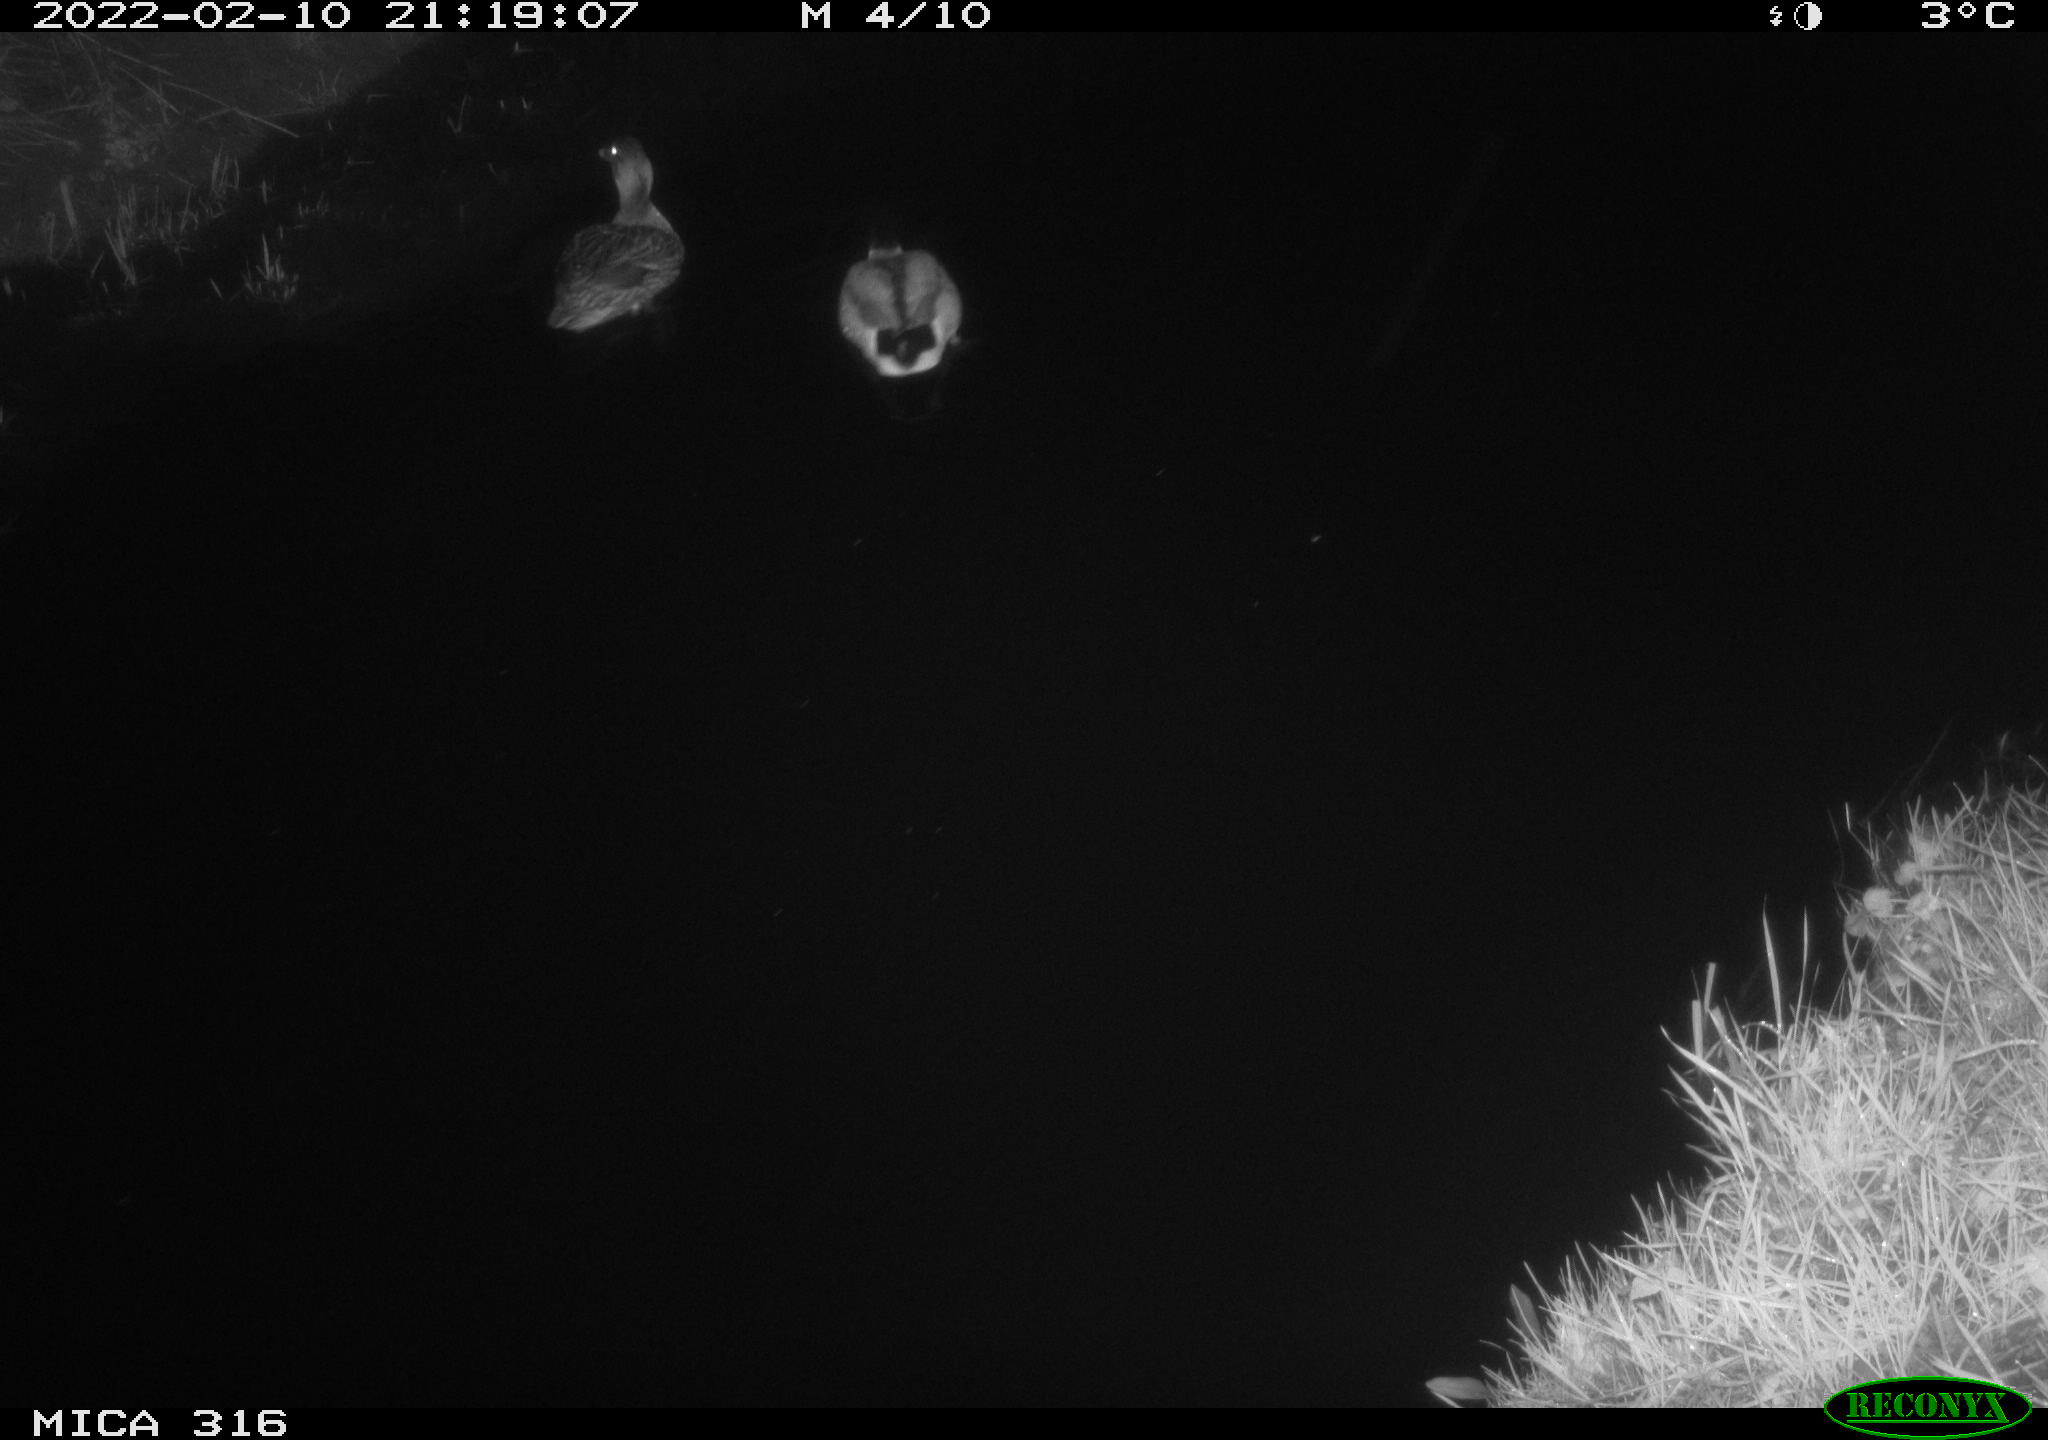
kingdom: Animalia
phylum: Chordata
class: Aves
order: Anseriformes
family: Anatidae
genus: Anas
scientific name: Anas platyrhynchos
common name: Mallard
